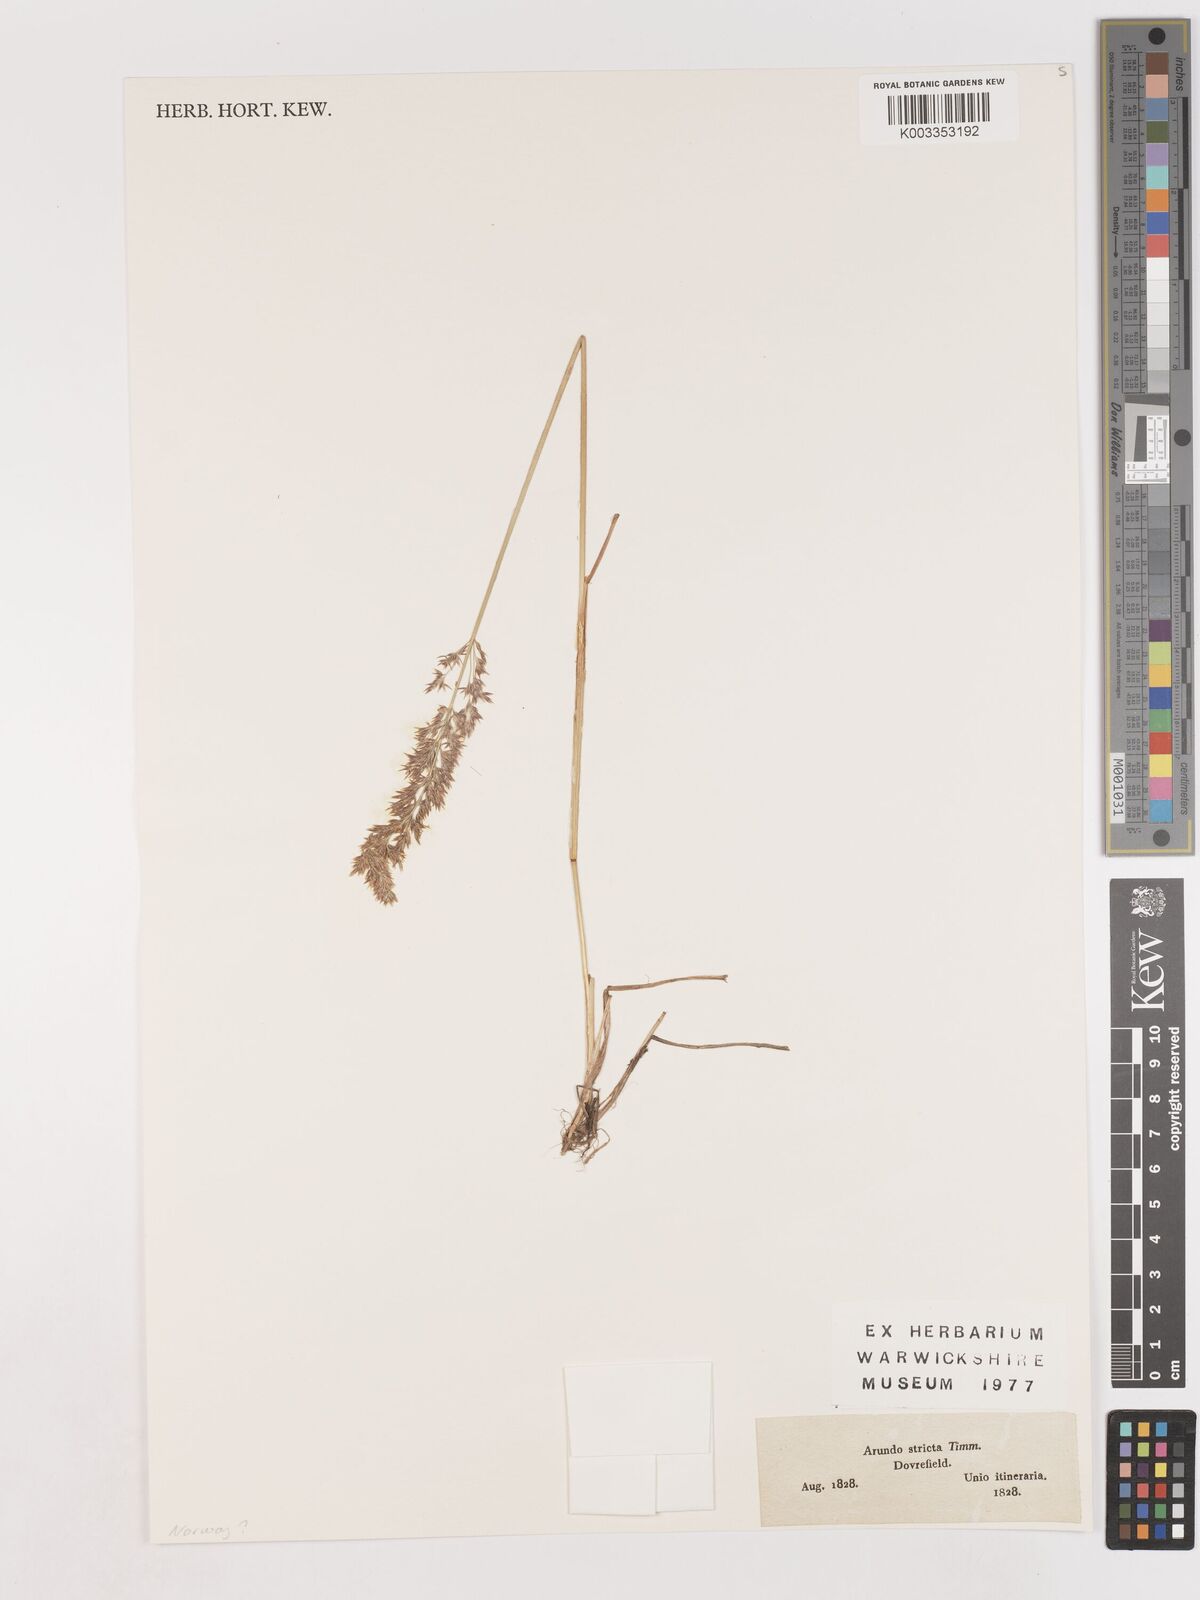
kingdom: Plantae
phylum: Tracheophyta
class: Liliopsida
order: Poales
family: Poaceae
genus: Cinnagrostis
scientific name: Cinnagrostis recta
